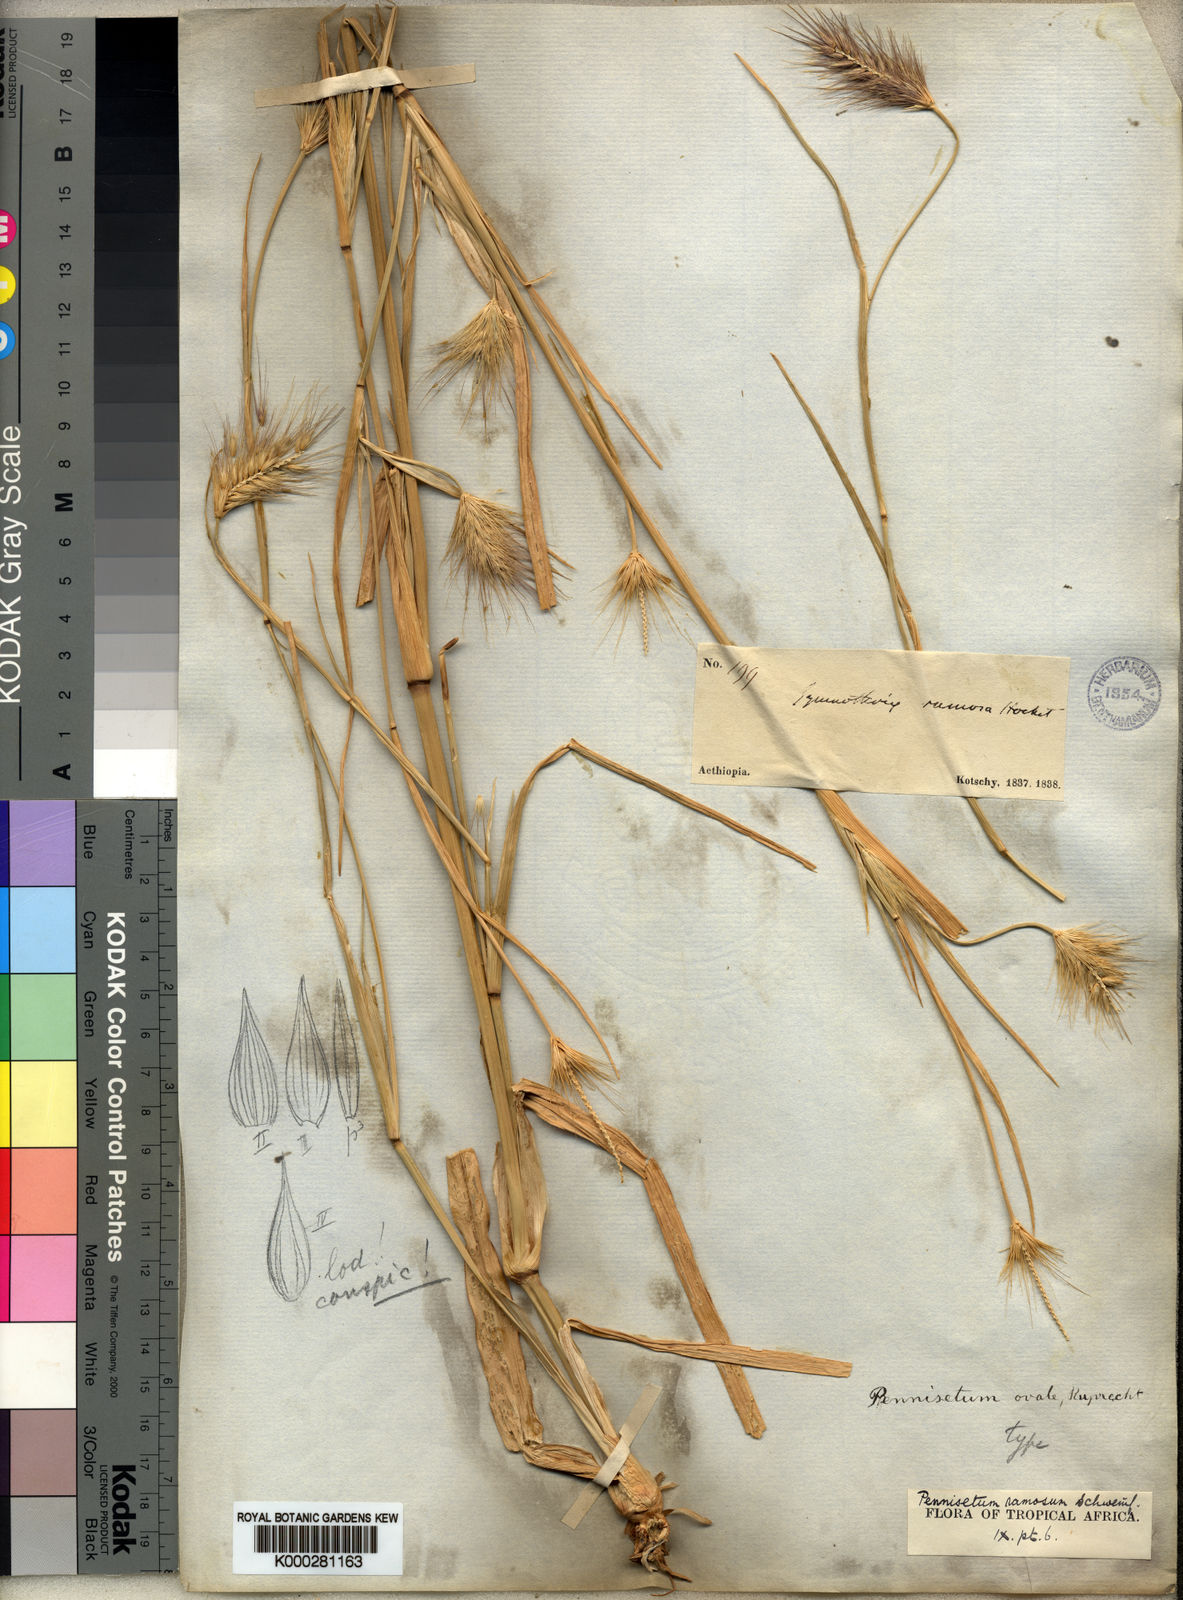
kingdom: Plantae
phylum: Tracheophyta
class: Liliopsida
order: Poales
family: Poaceae
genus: Cenchrus
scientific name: Cenchrus ramosus
